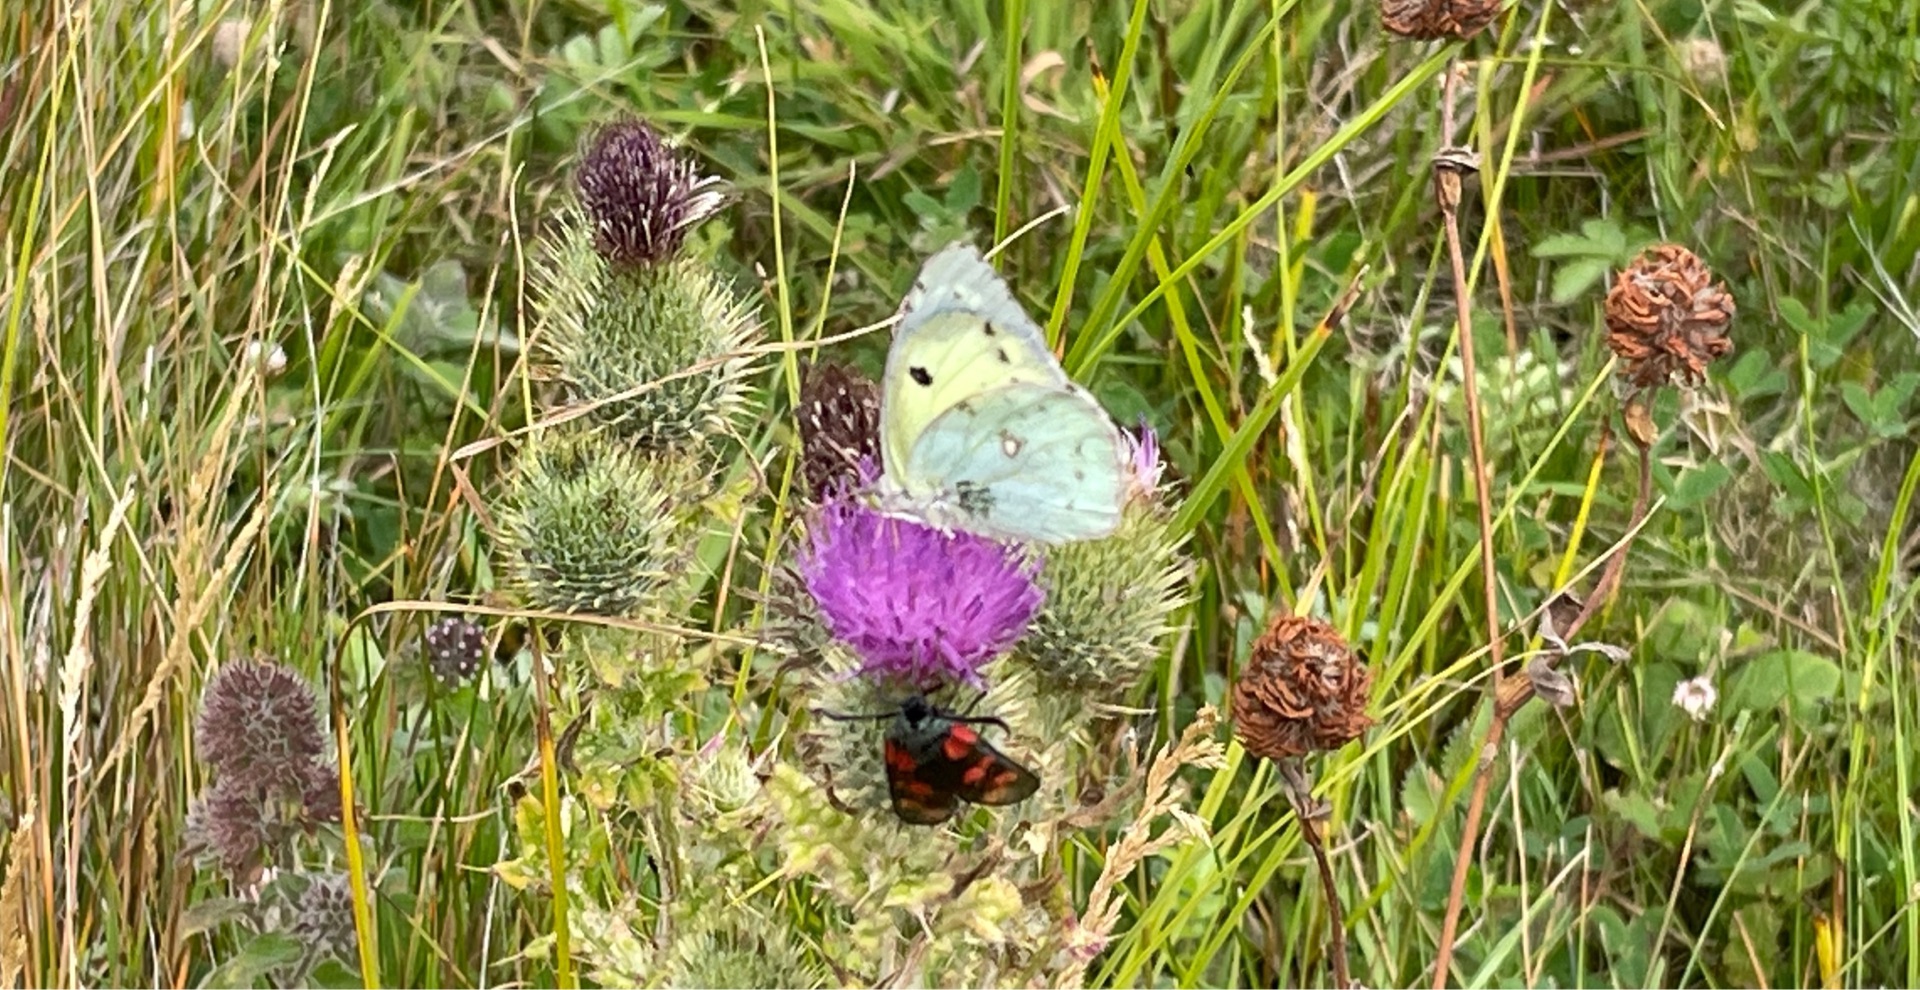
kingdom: Animalia
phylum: Arthropoda
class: Insecta
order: Lepidoptera
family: Pieridae
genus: Colias
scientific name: Colias hyale
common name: Gul høsommerfugl
